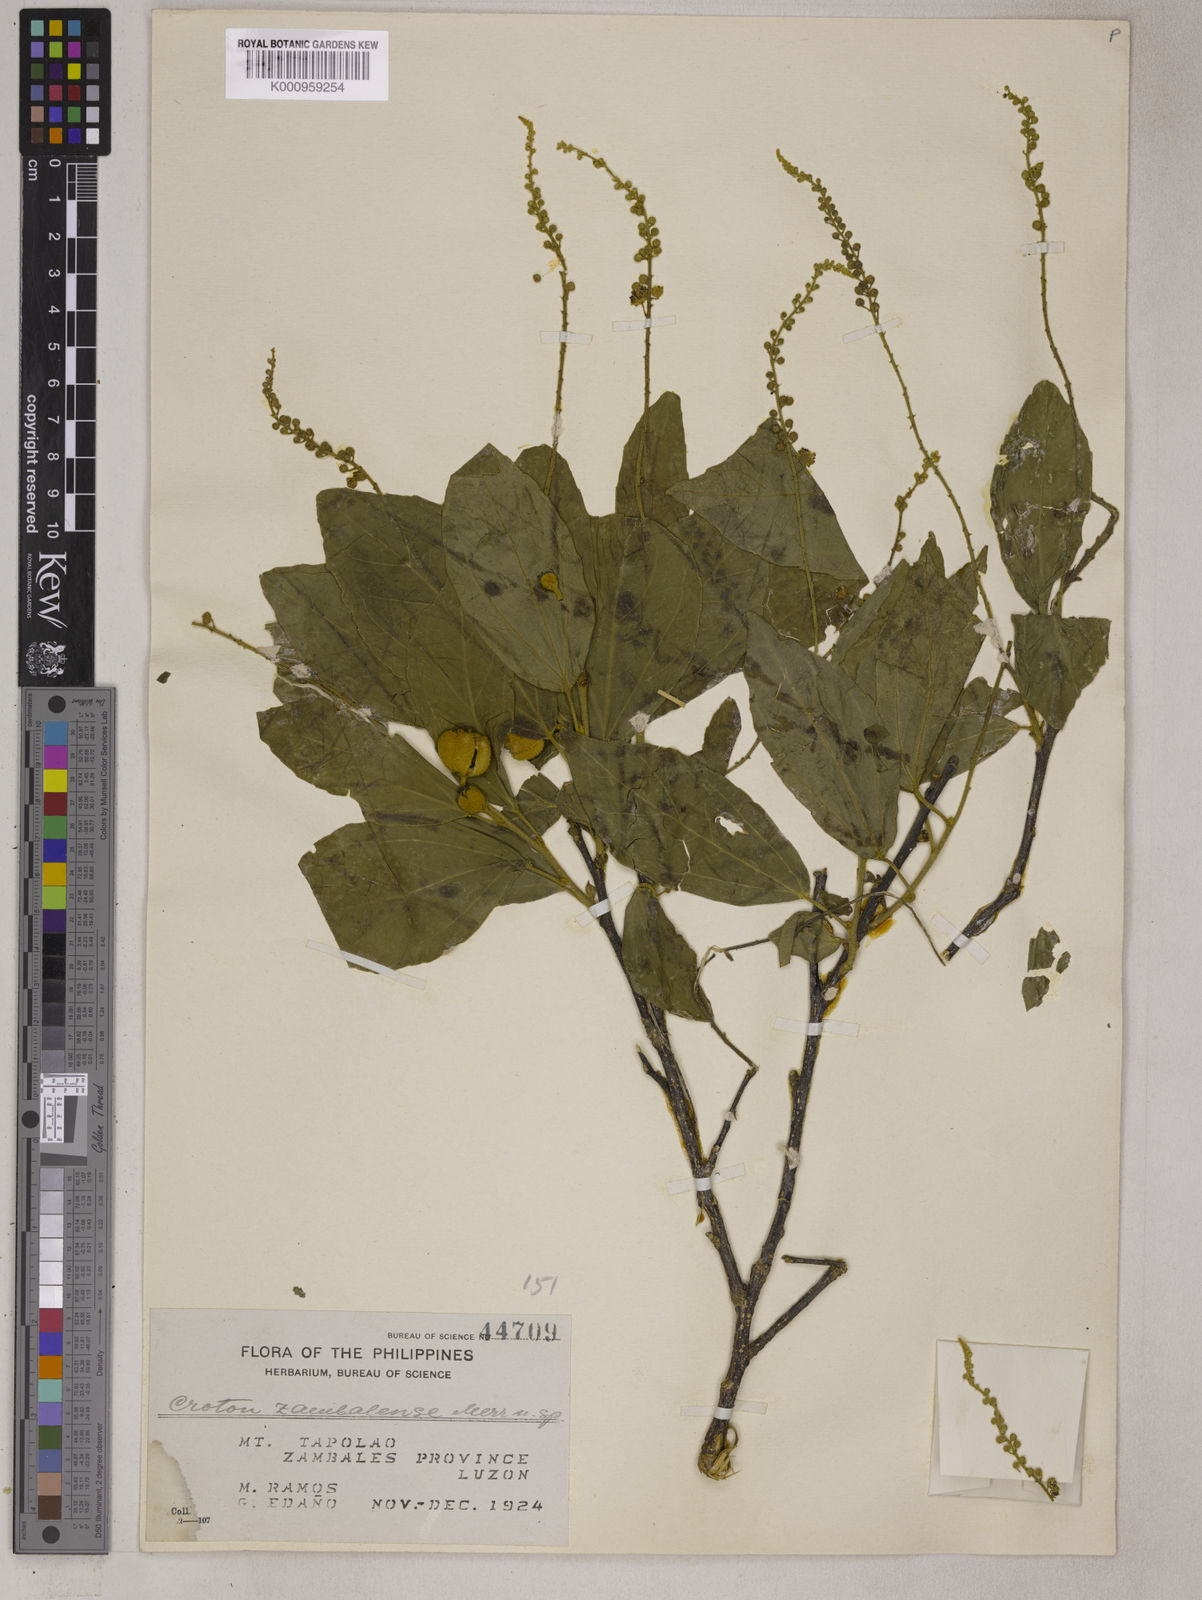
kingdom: Plantae
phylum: Tracheophyta
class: Magnoliopsida
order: Malpighiales
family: Euphorbiaceae
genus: Croton
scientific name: Croton zambalensis
